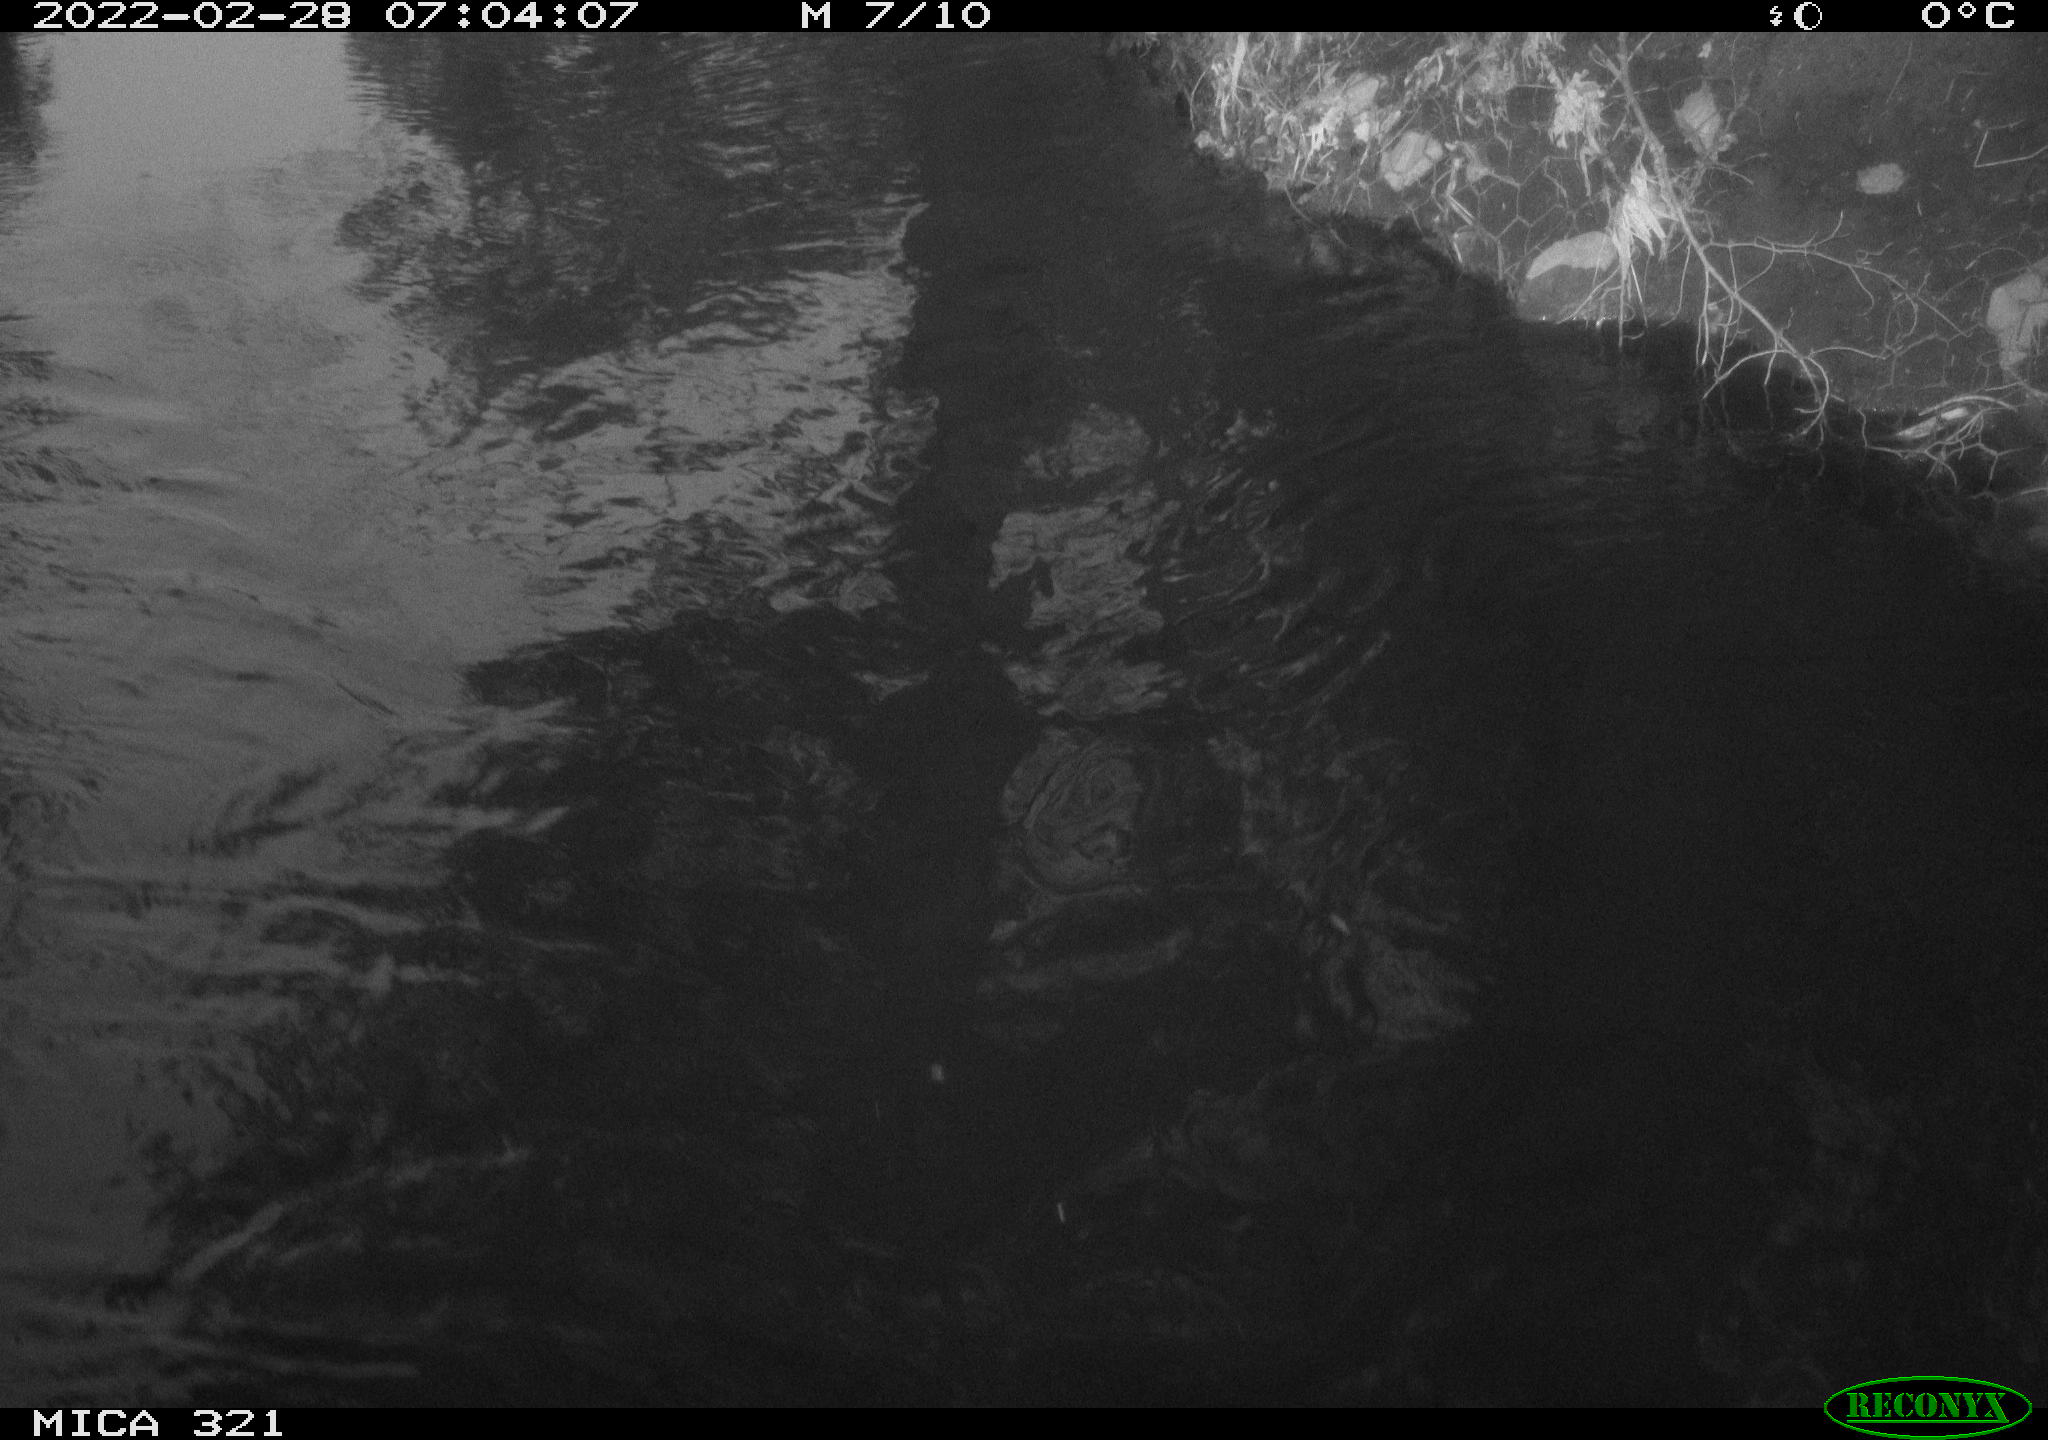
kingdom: Animalia
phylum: Chordata
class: Aves
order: Gruiformes
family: Rallidae
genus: Gallinula
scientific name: Gallinula chloropus
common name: Common moorhen
